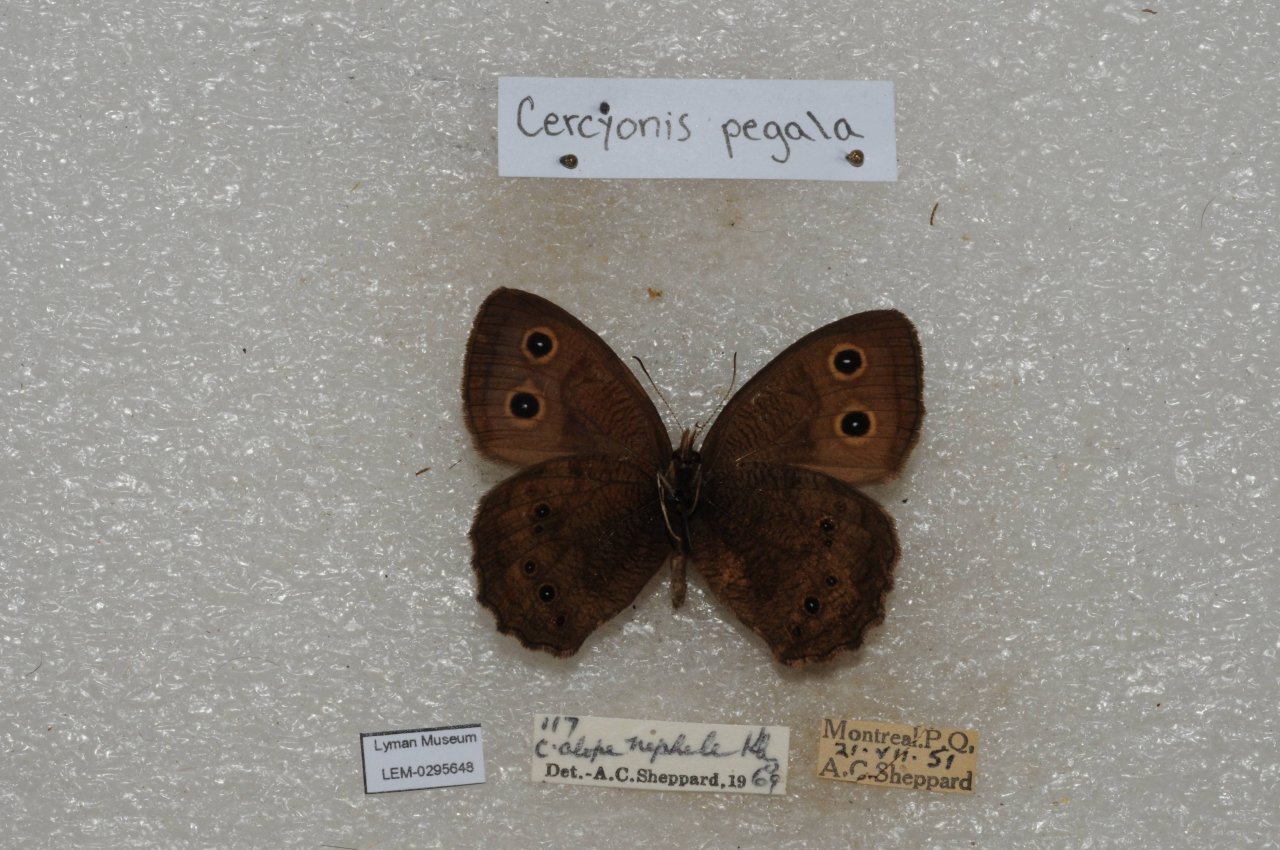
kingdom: Animalia
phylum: Arthropoda
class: Insecta
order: Lepidoptera
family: Nymphalidae
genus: Cercyonis
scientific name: Cercyonis pegala
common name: Common Wood-Nymph
